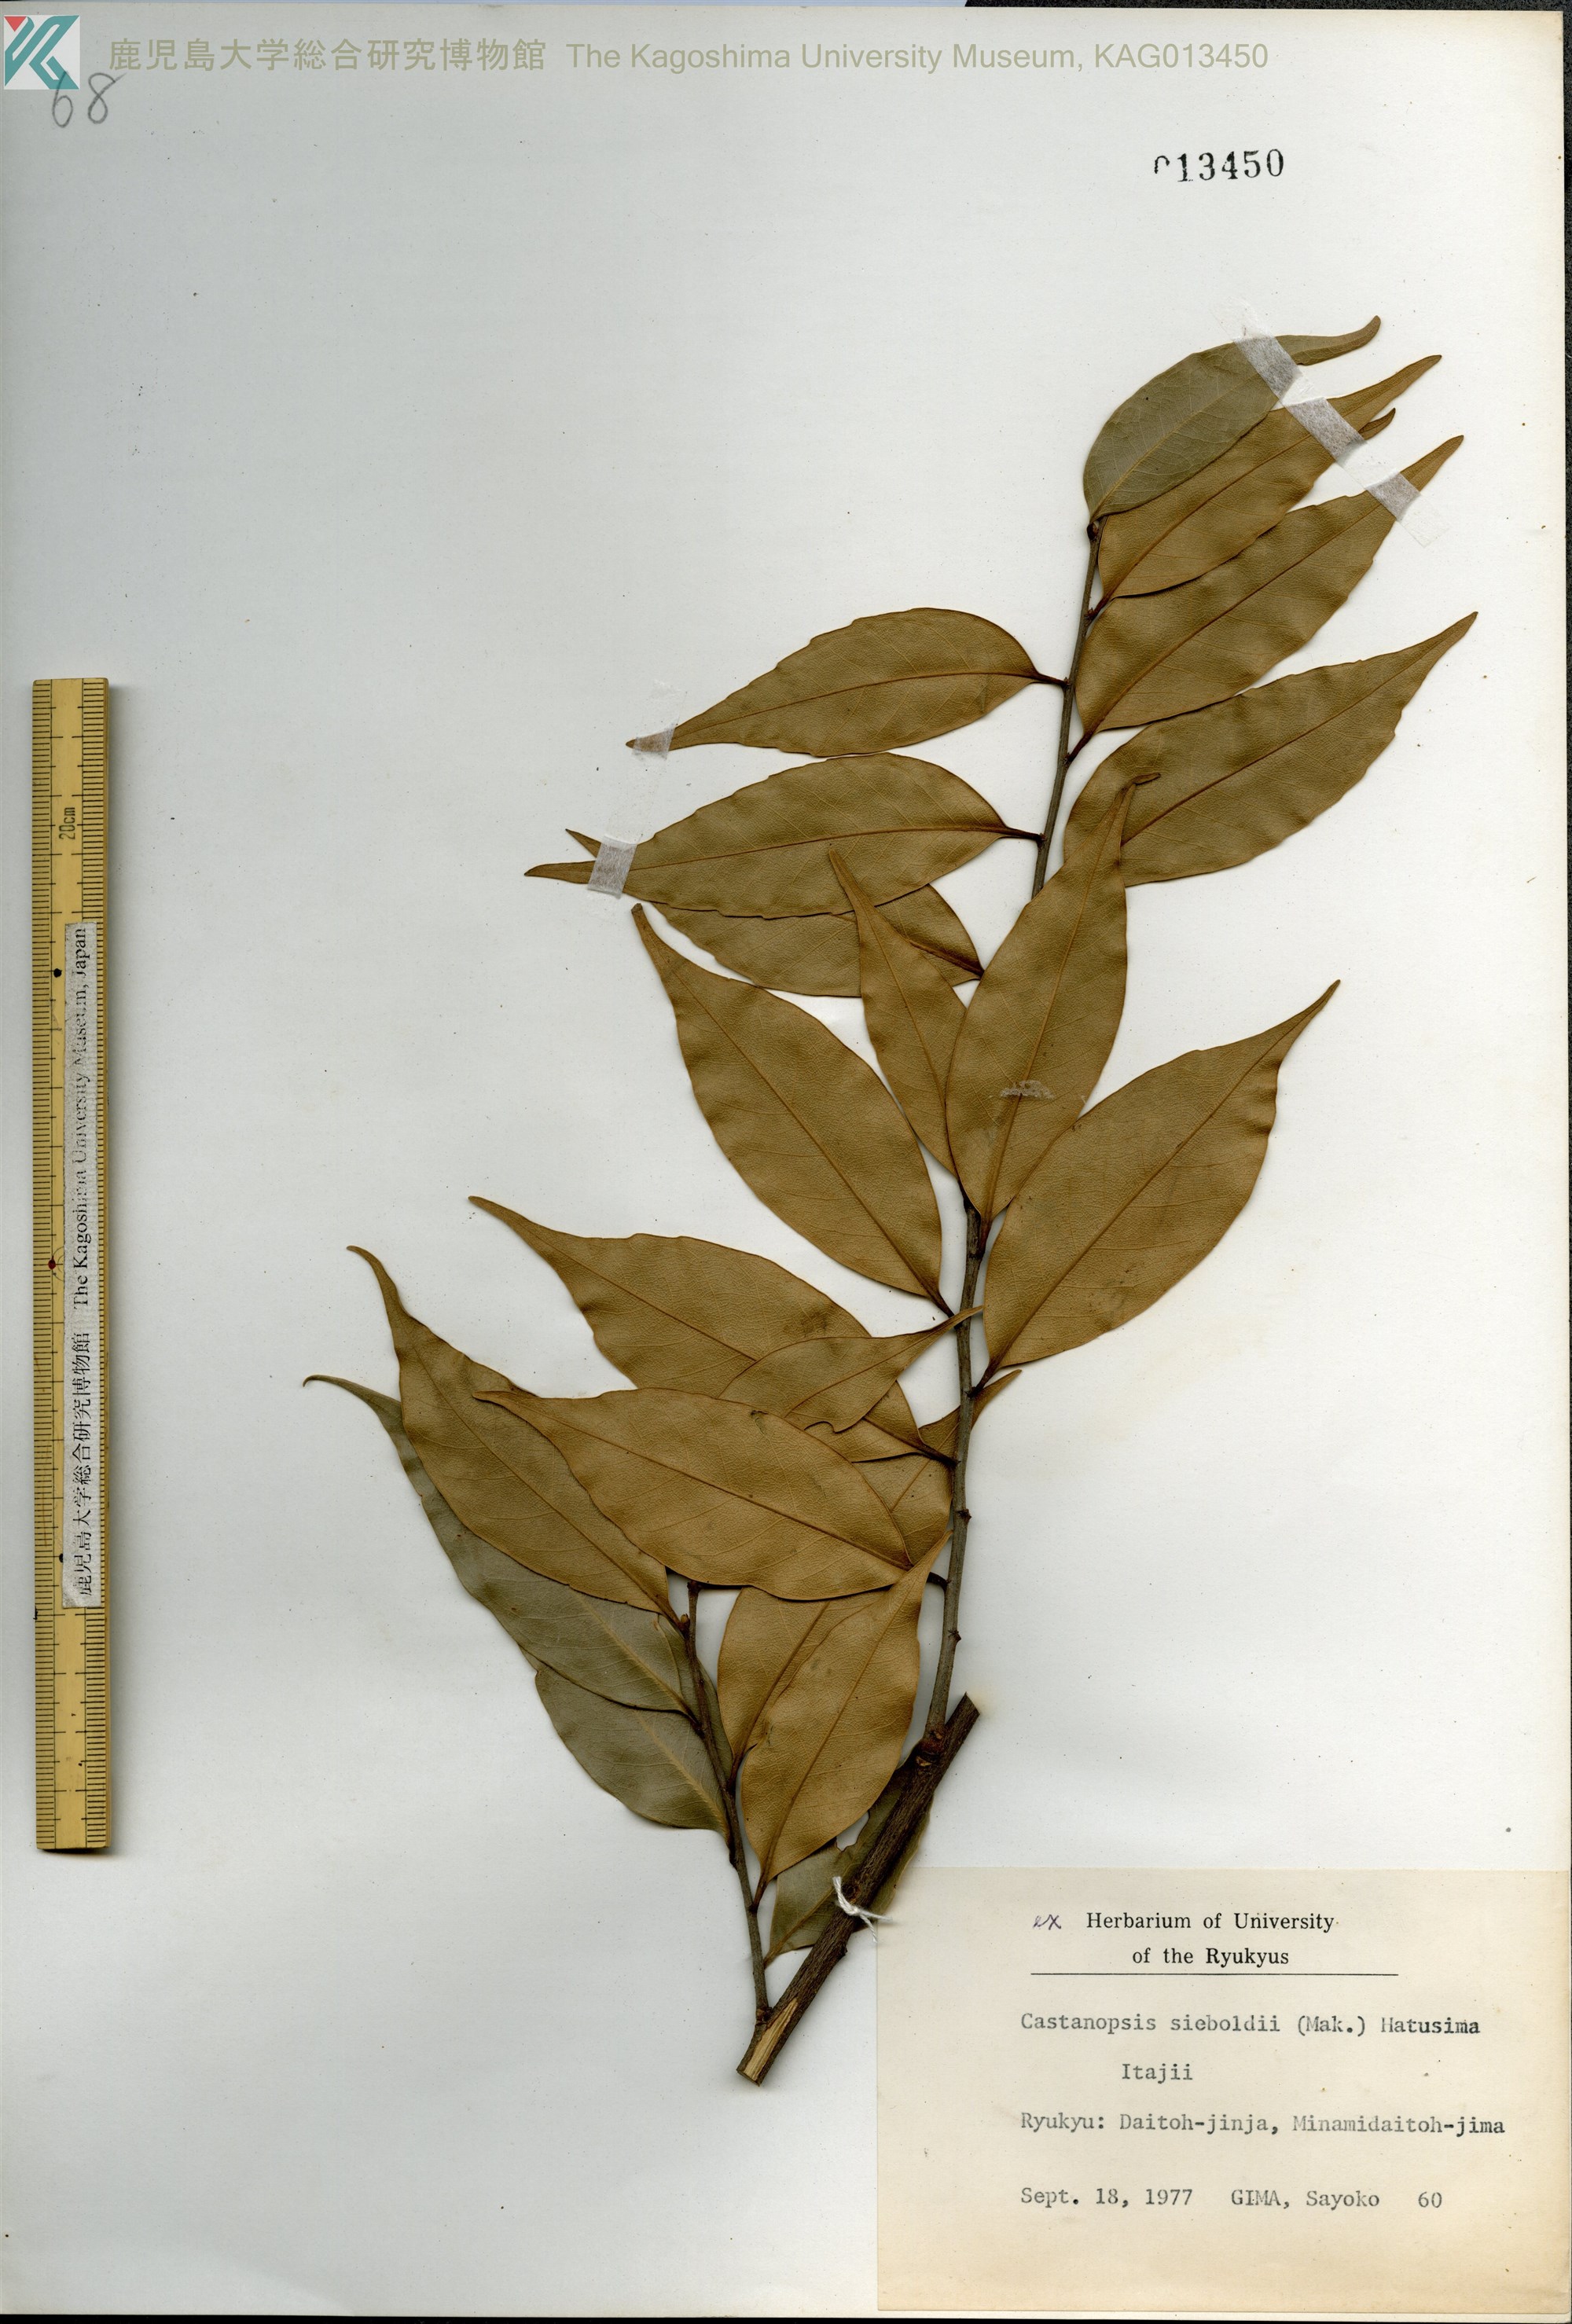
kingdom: Plantae
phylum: Tracheophyta
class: Magnoliopsida
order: Fagales
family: Fagaceae
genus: Castanopsis
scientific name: Castanopsis sieboldii
